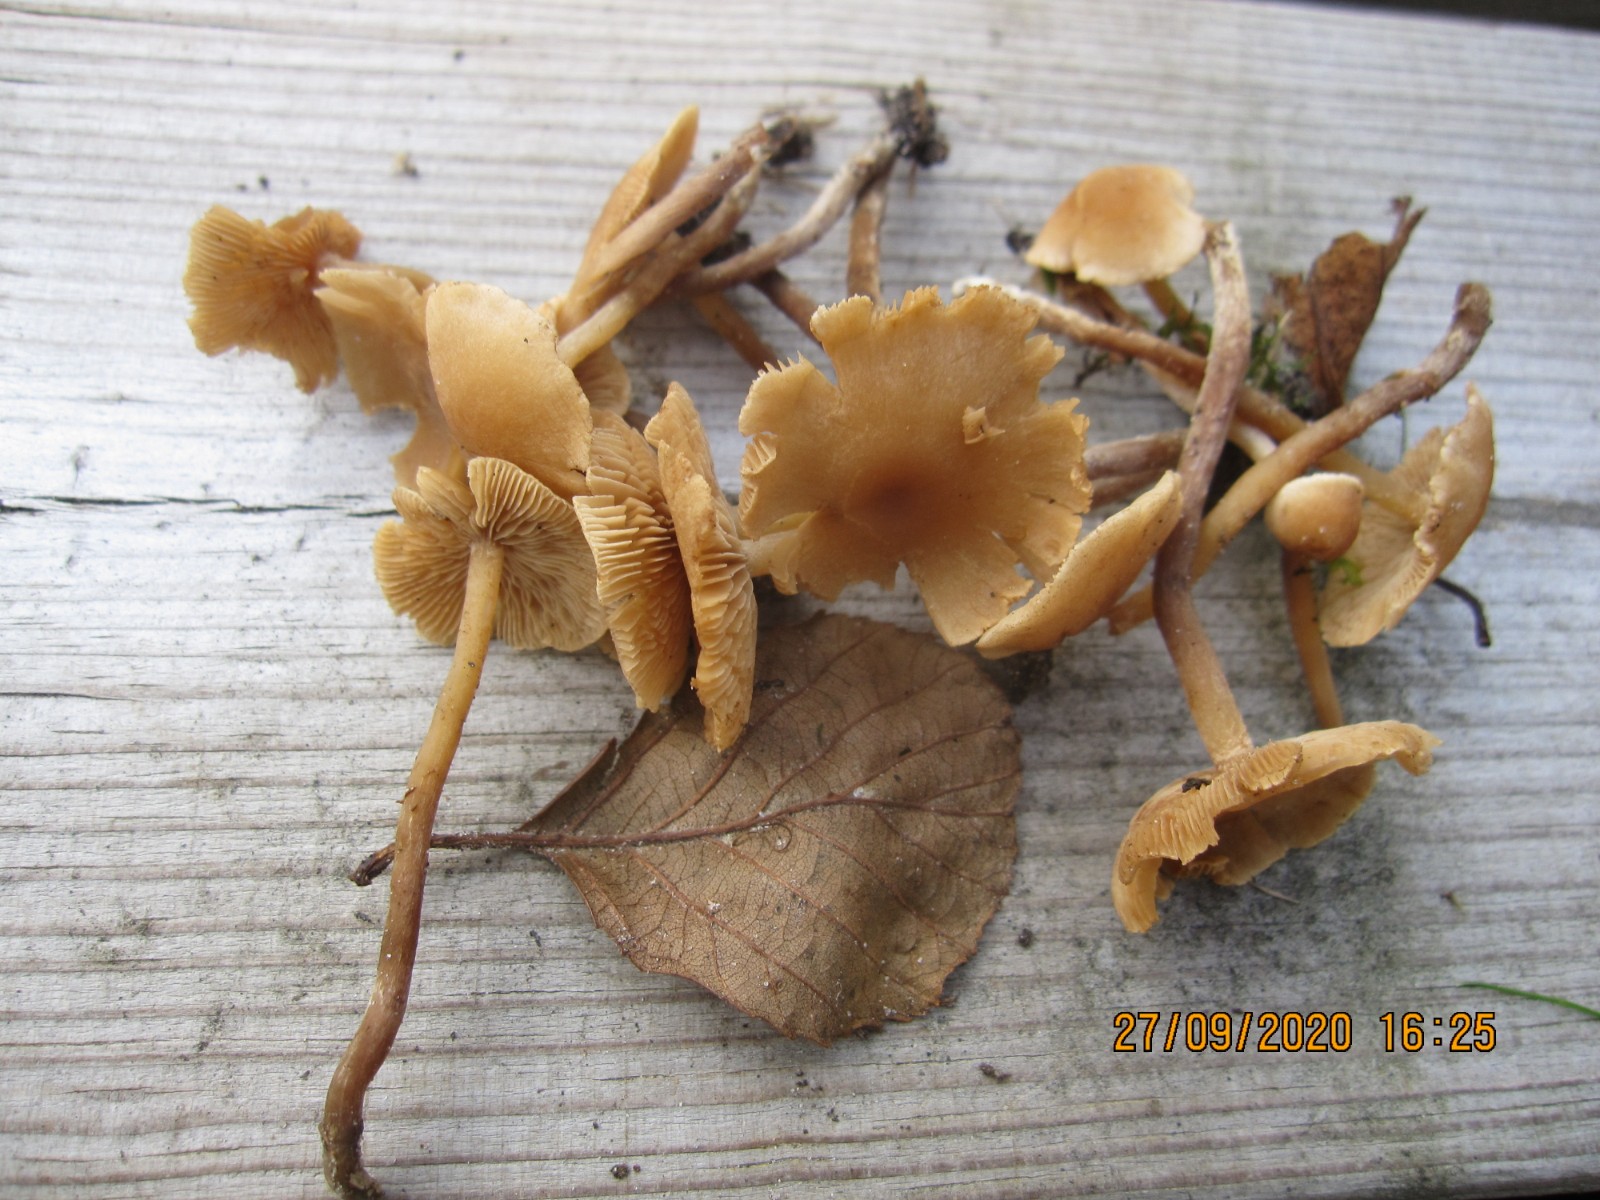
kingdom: Fungi
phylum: Basidiomycota
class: Agaricomycetes
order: Agaricales
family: Hymenogastraceae
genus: Naucoria
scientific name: Naucoria escharioides
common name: lys elle-knaphat
